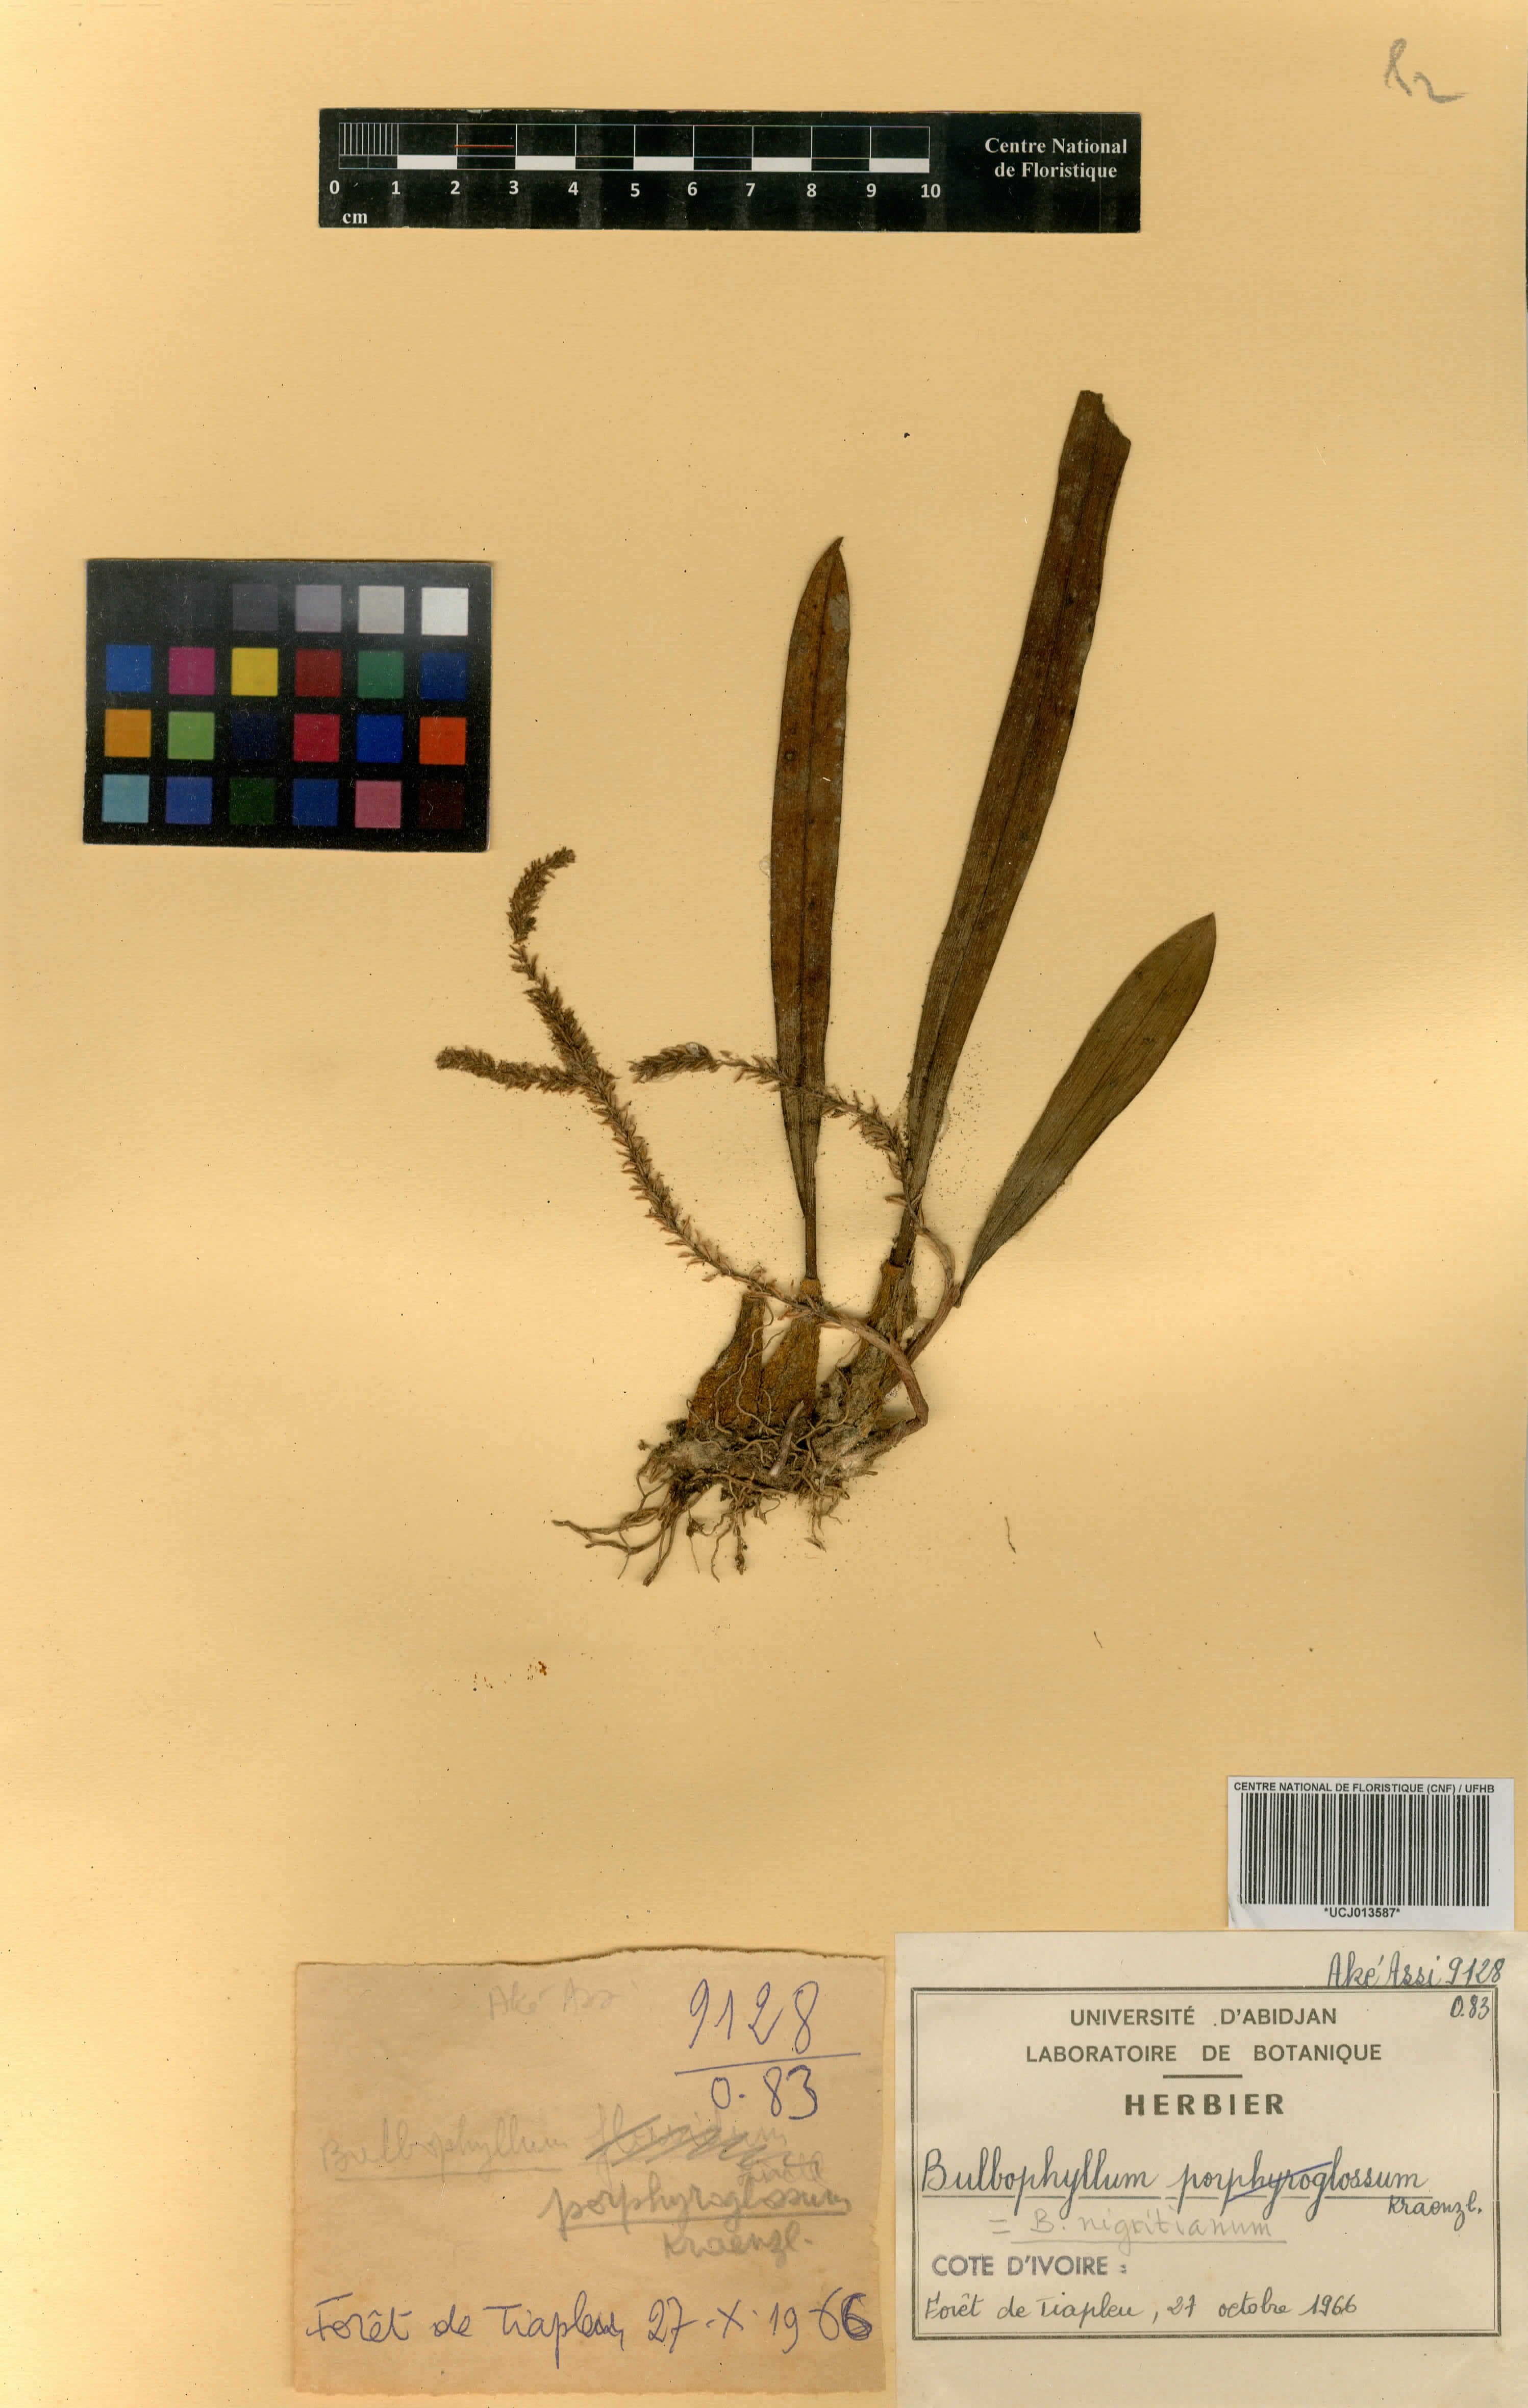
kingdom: Plantae
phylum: Tracheophyta
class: Liliopsida
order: Asparagales
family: Orchidaceae
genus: Bulbophyllum
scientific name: Bulbophyllum nigritianum
